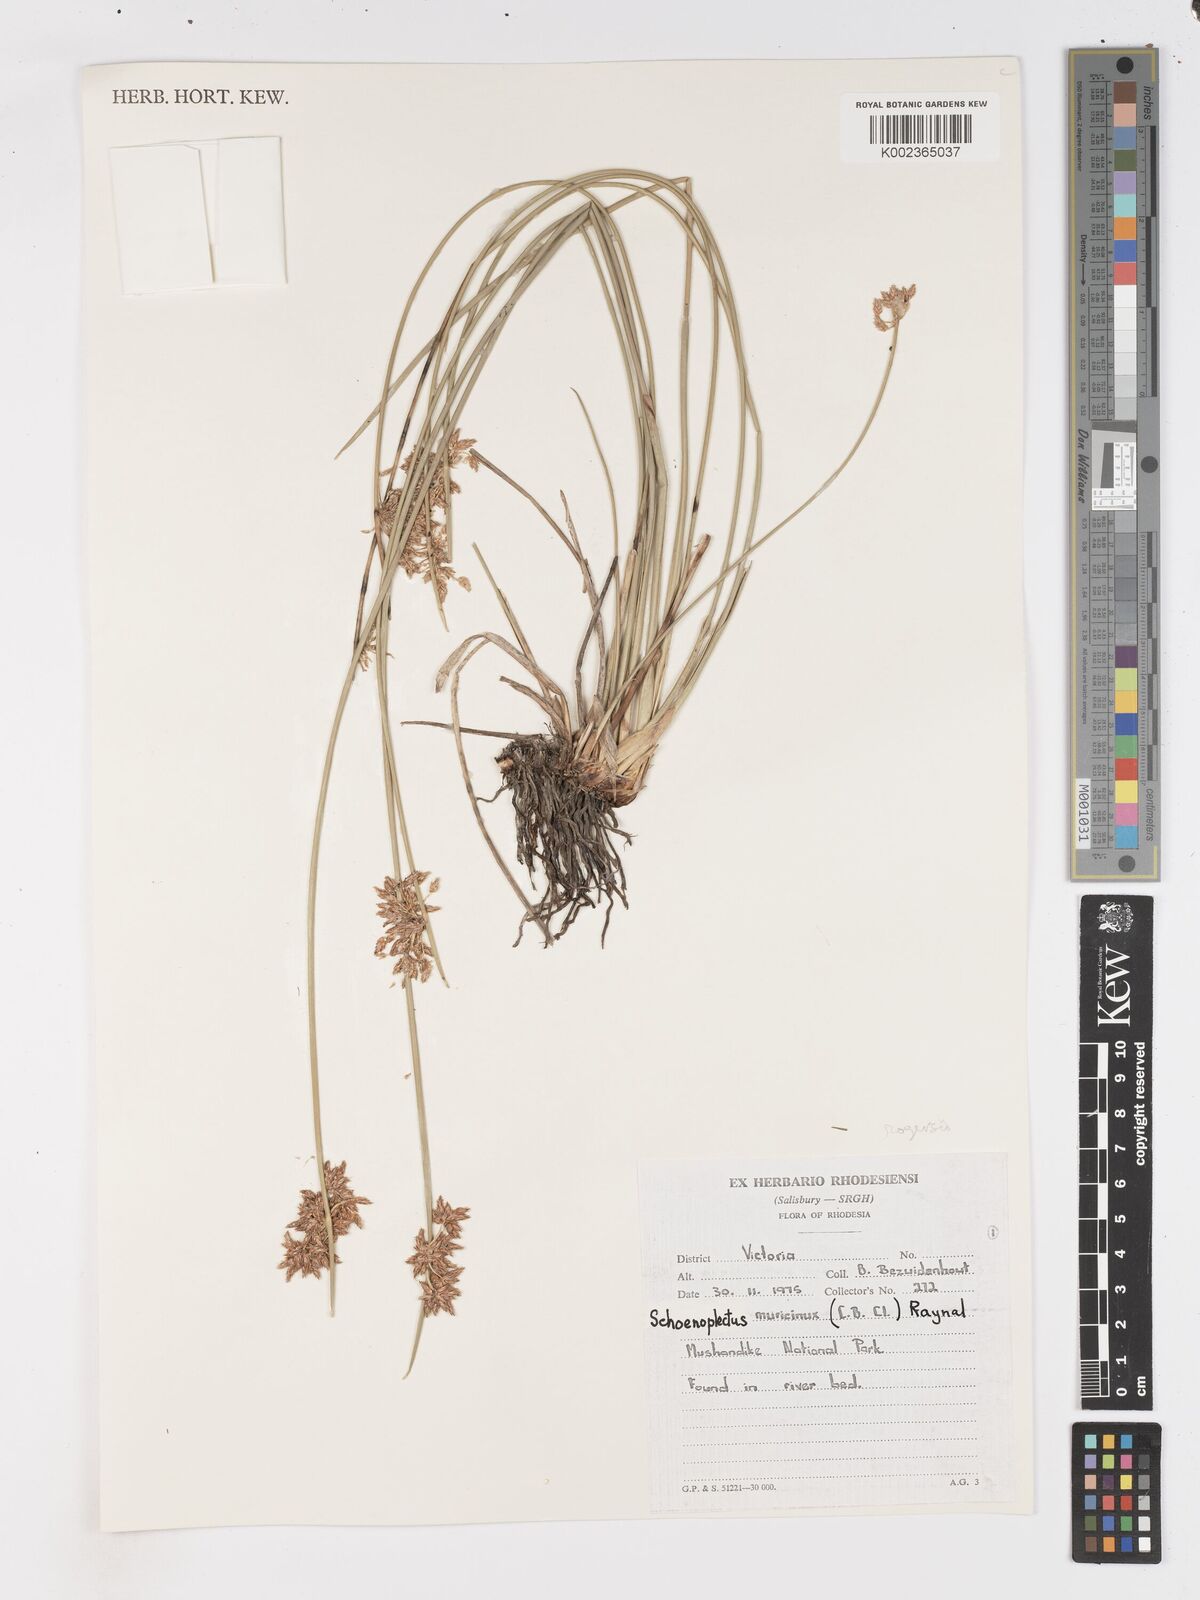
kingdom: Plantae
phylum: Tracheophyta
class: Liliopsida
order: Poales
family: Cyperaceae
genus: Schoenoplectiella
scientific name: Schoenoplectiella rogersii
